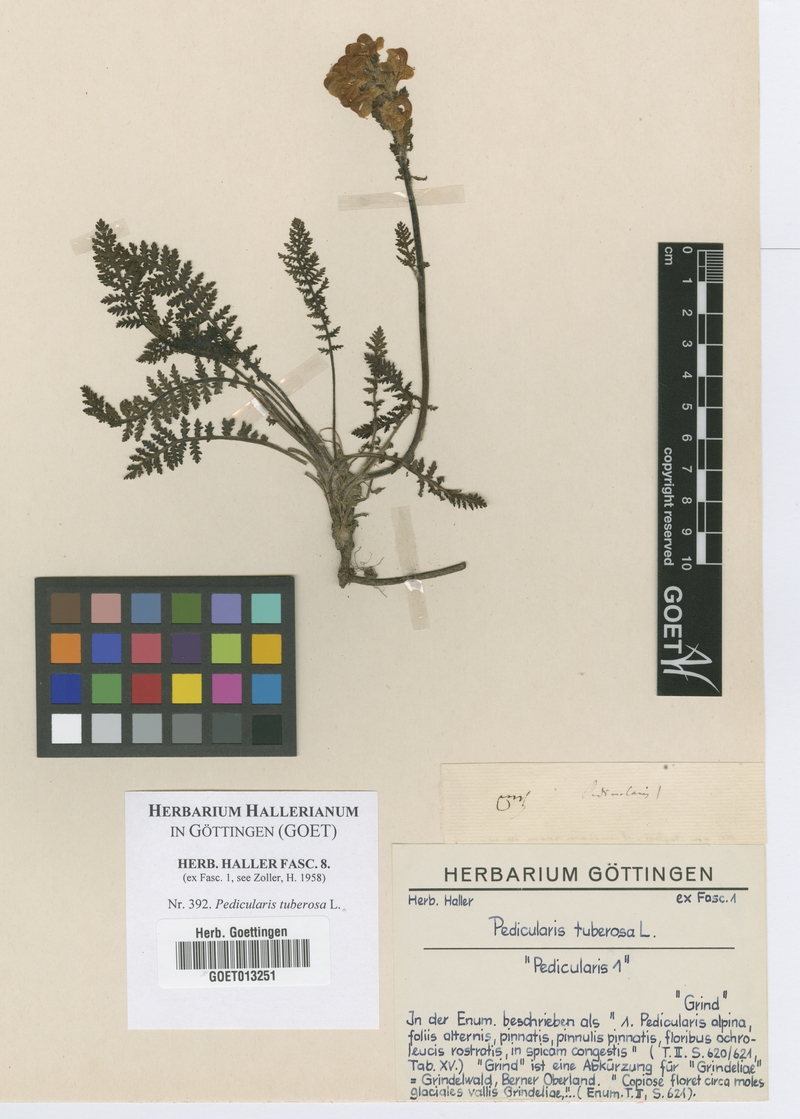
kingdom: Plantae
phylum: Tracheophyta
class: Magnoliopsida
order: Lamiales
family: Orobanchaceae
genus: Pedicularis
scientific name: Pedicularis tuberosa
